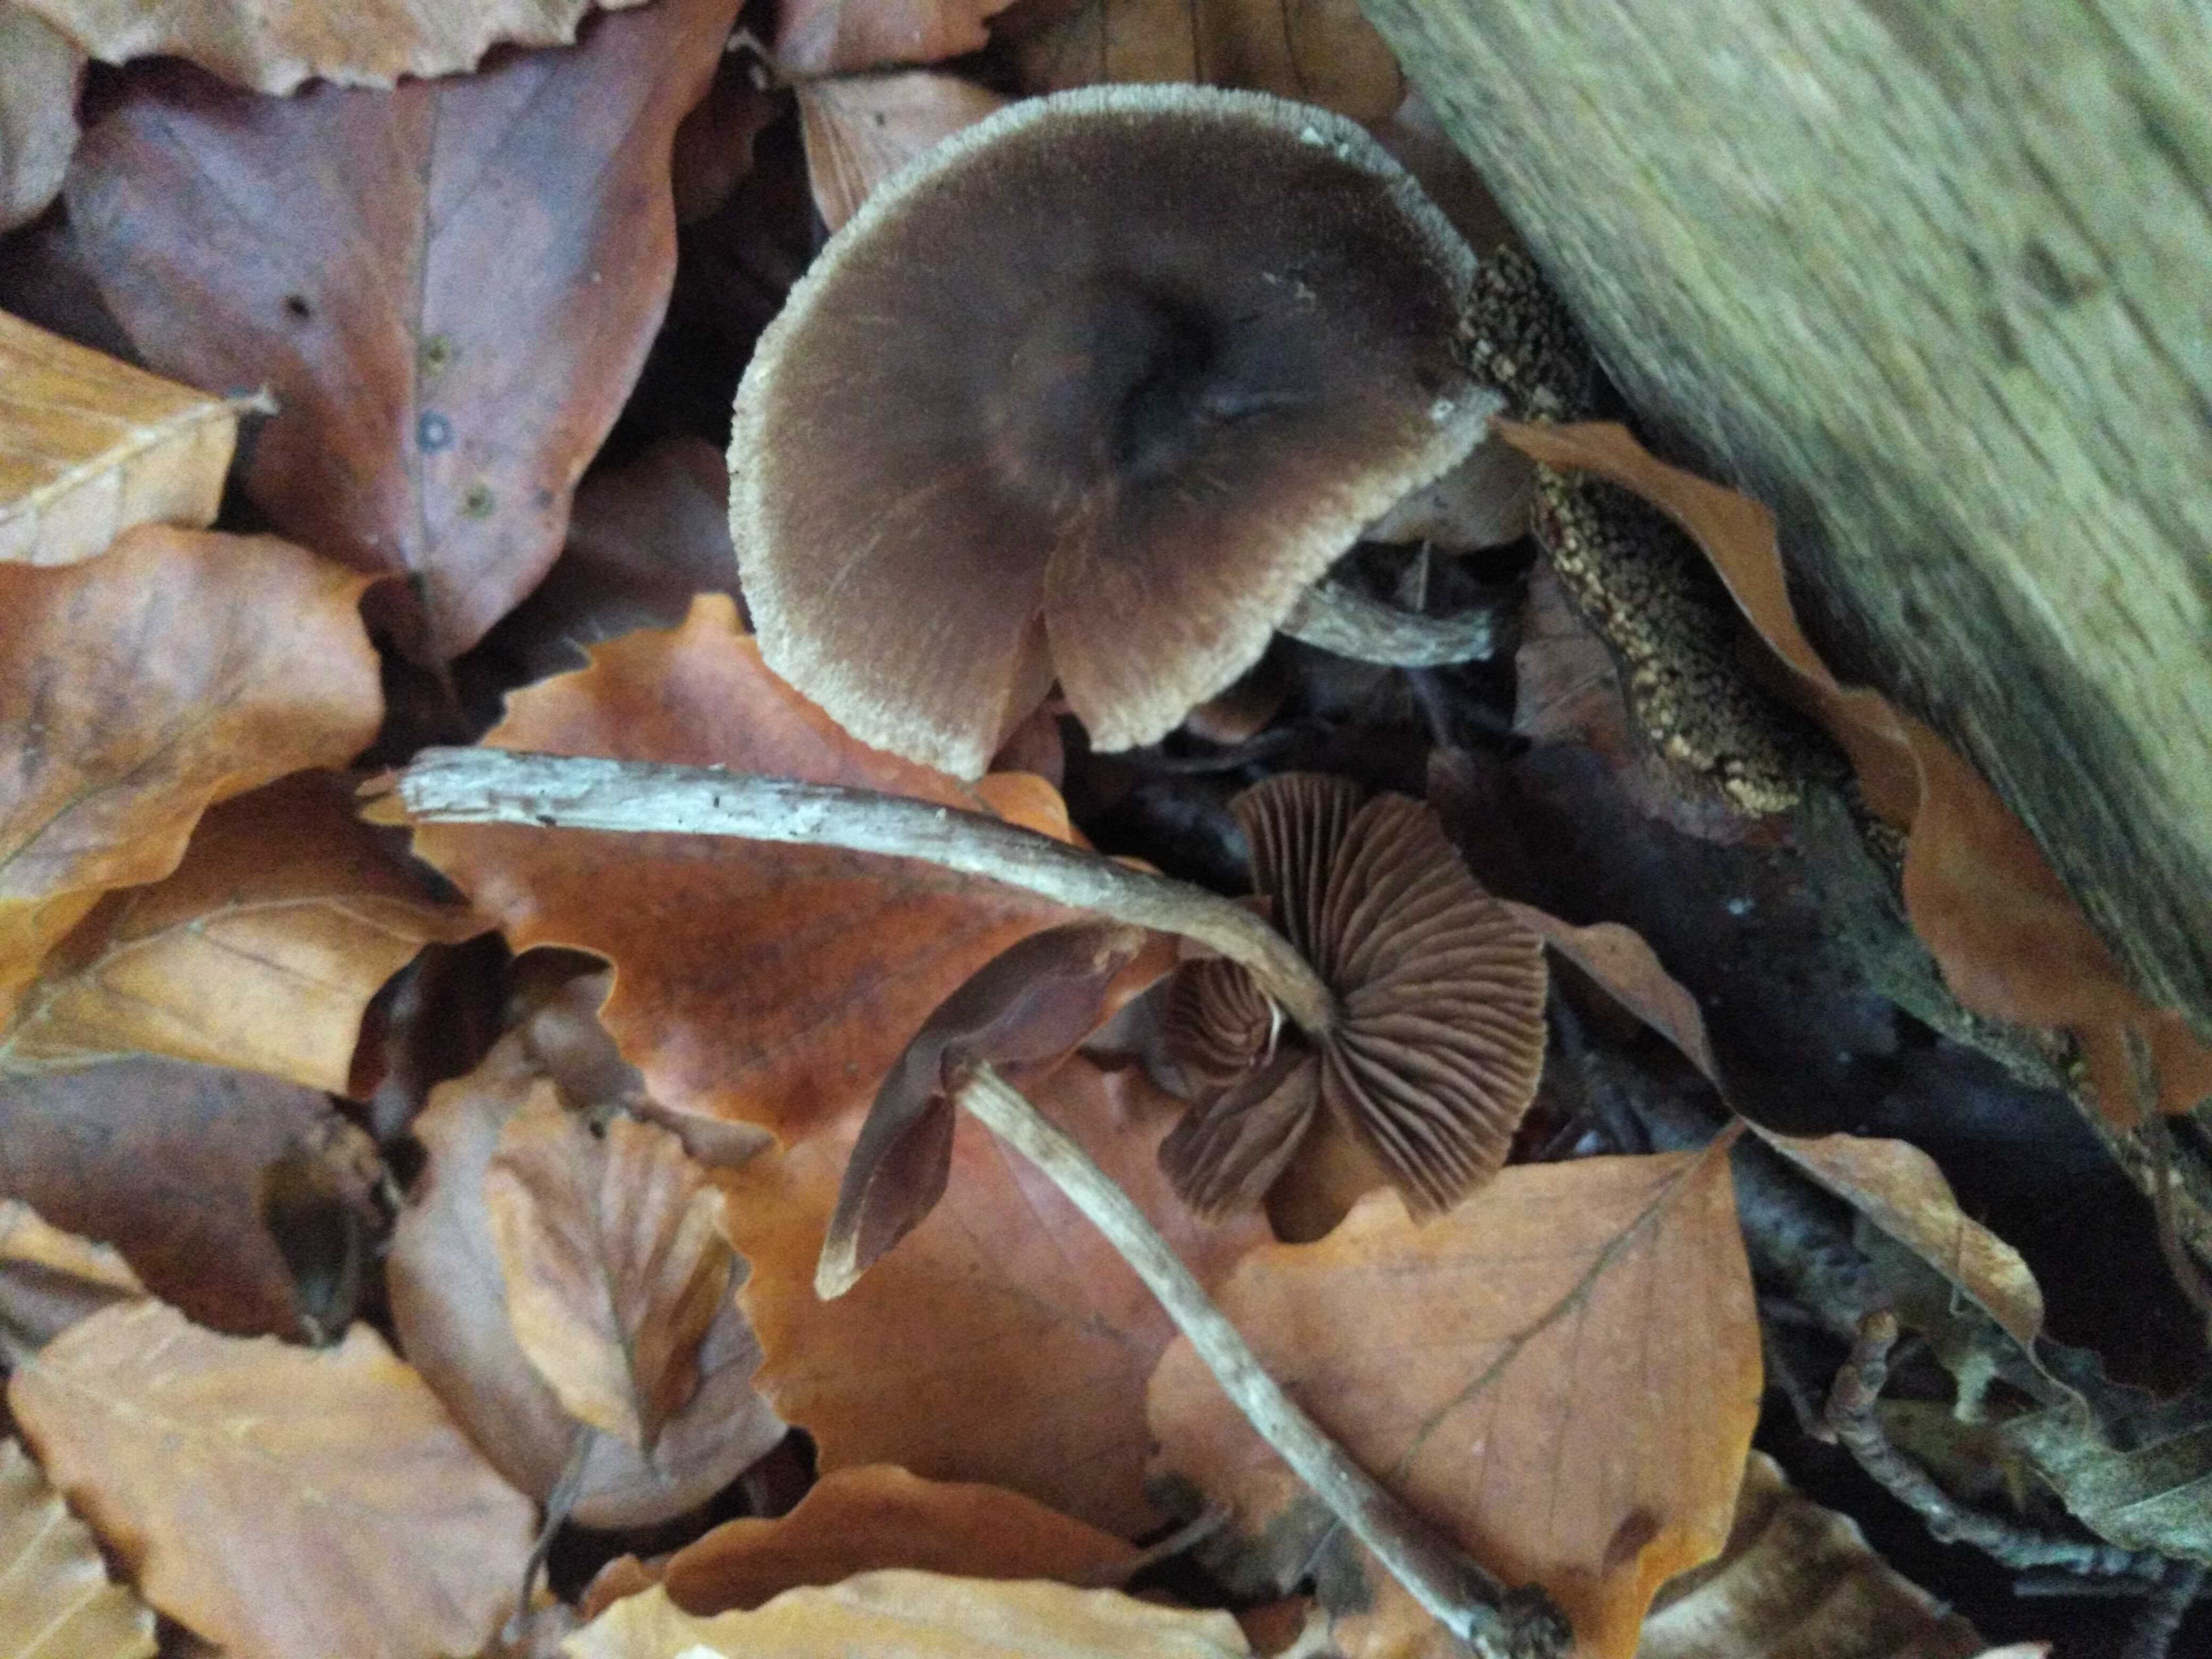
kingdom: Fungi
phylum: Basidiomycota
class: Agaricomycetes
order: Agaricales
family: Cortinariaceae
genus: Cortinarius
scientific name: Cortinarius
